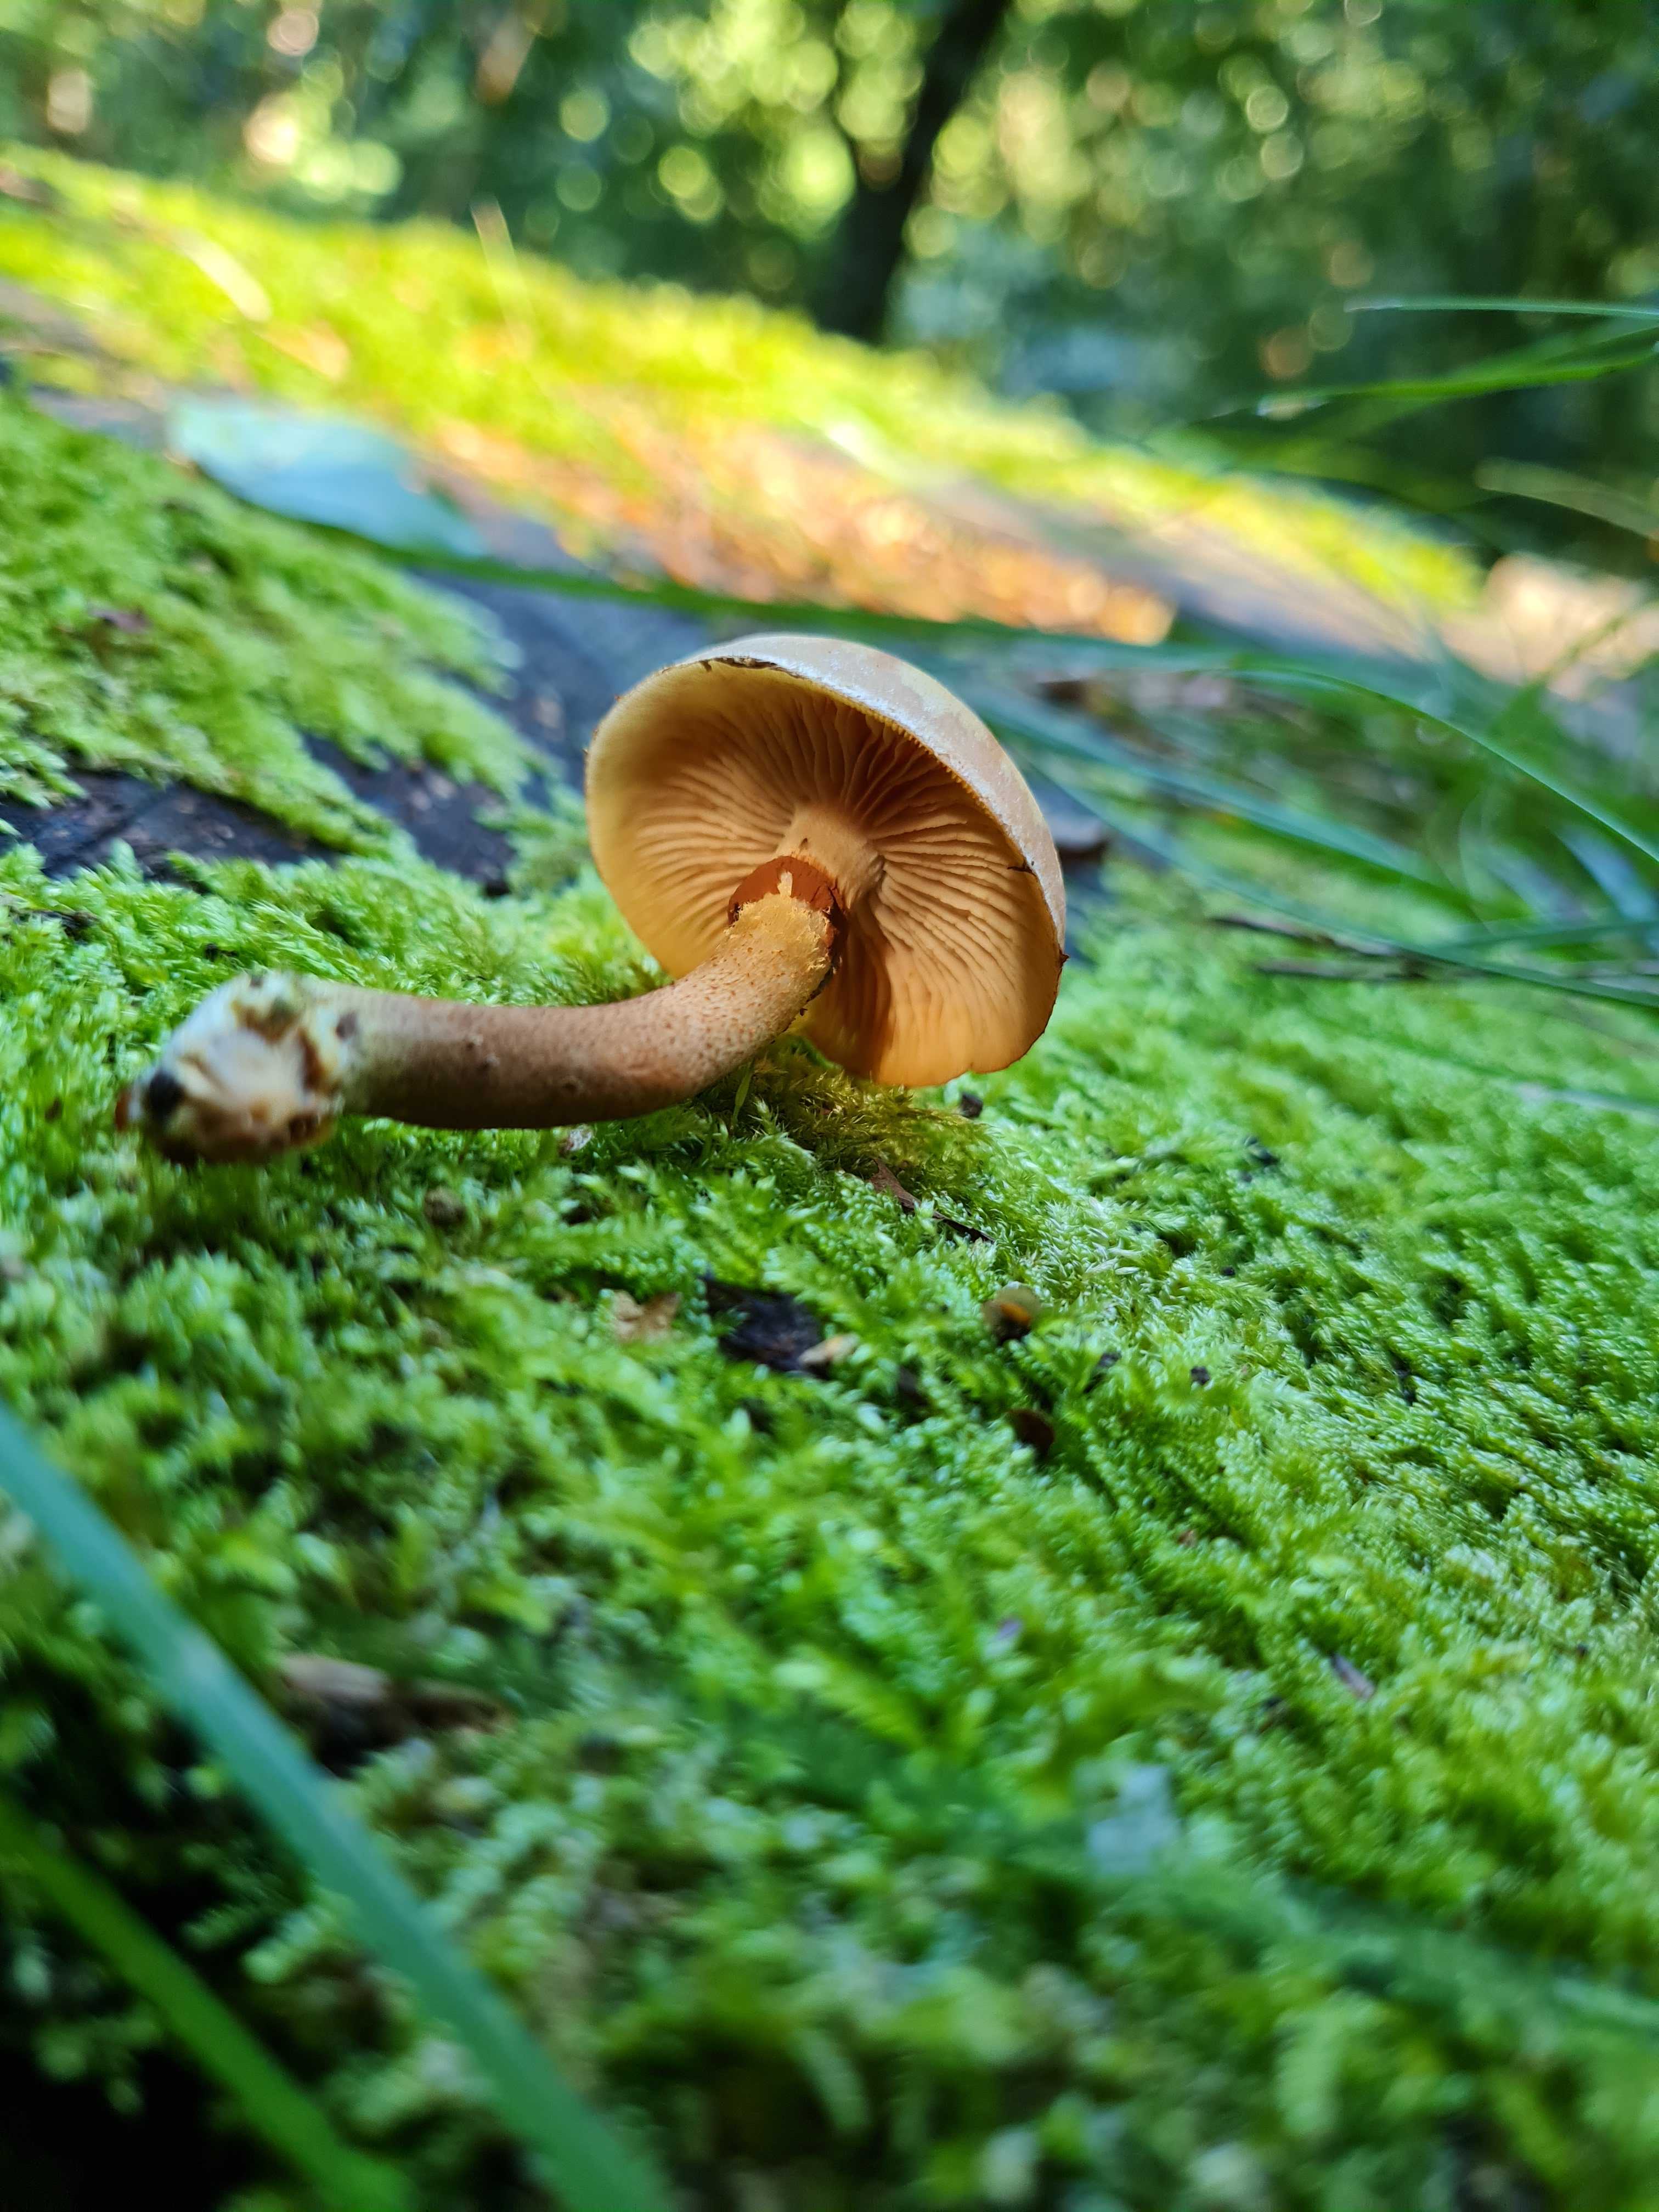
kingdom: Fungi
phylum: Basidiomycota
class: Agaricomycetes
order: Agaricales
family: Strophariaceae
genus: Kuehneromyces
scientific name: Kuehneromyces mutabilis
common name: foranderlig skælhat
